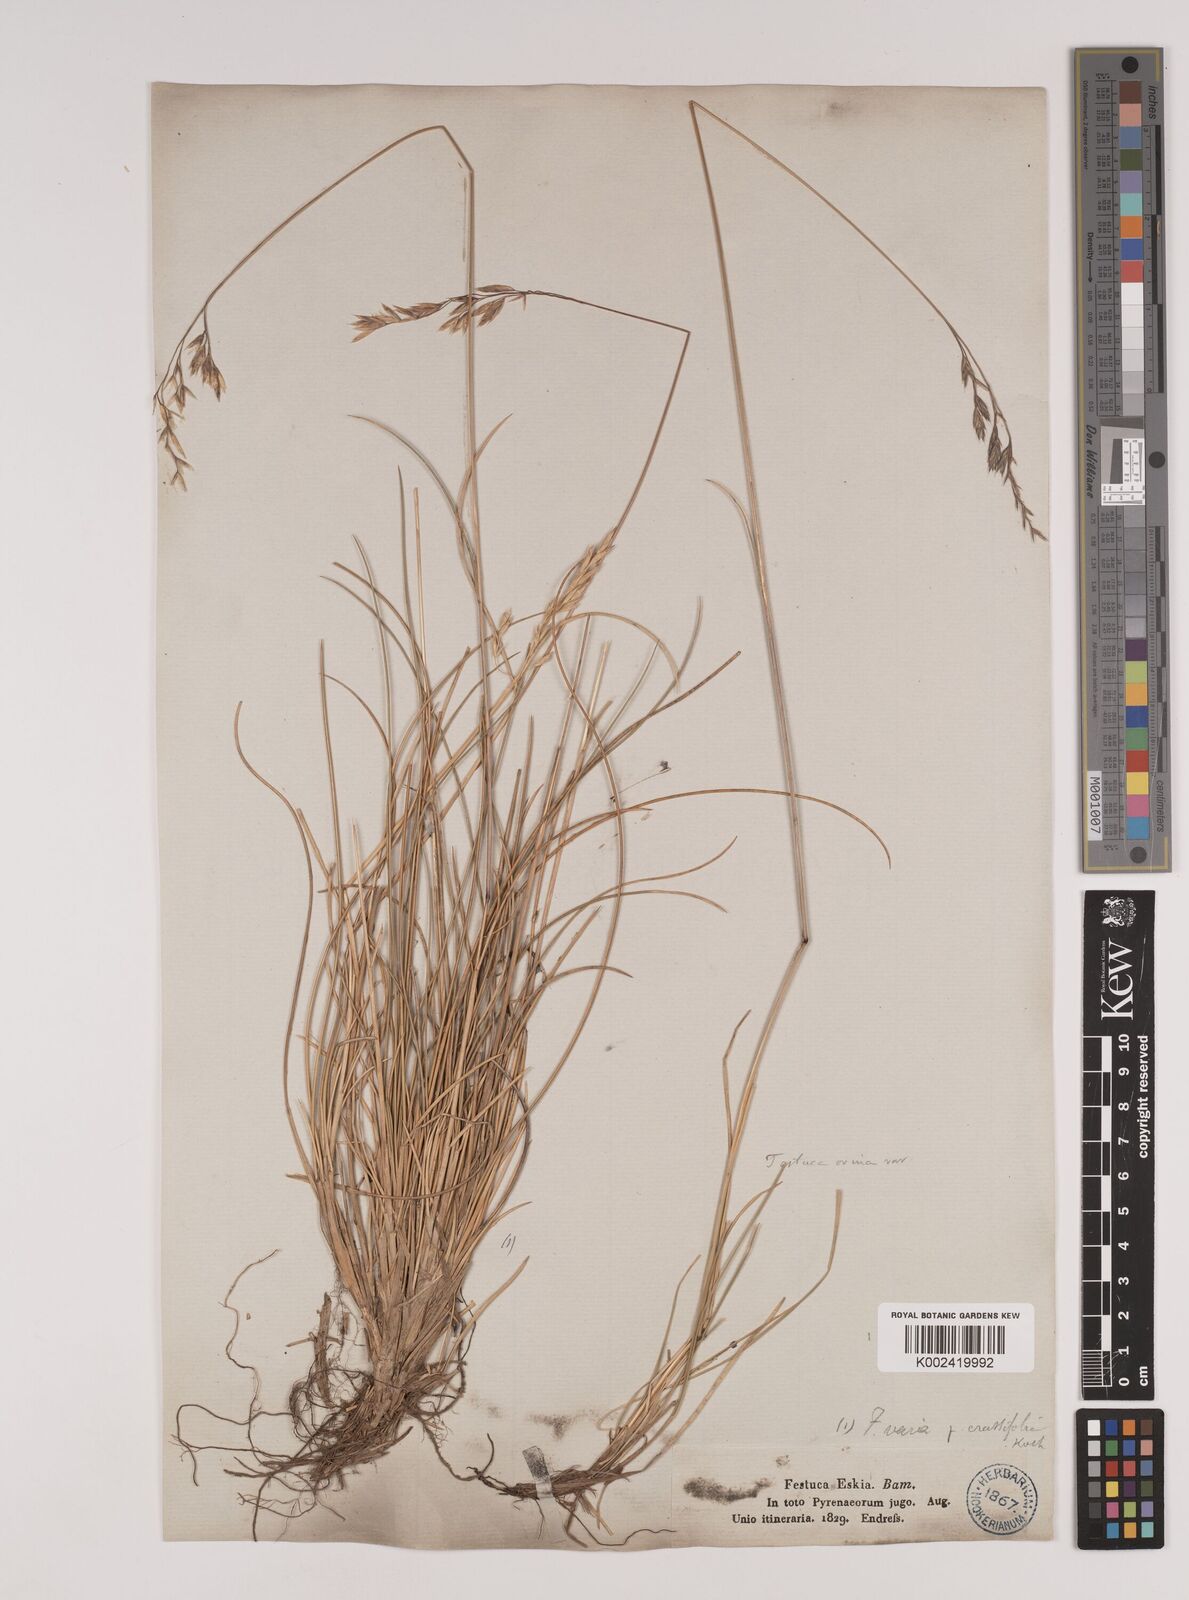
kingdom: Plantae
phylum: Tracheophyta
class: Liliopsida
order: Poales
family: Poaceae
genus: Festuca
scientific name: Festuca eskia
